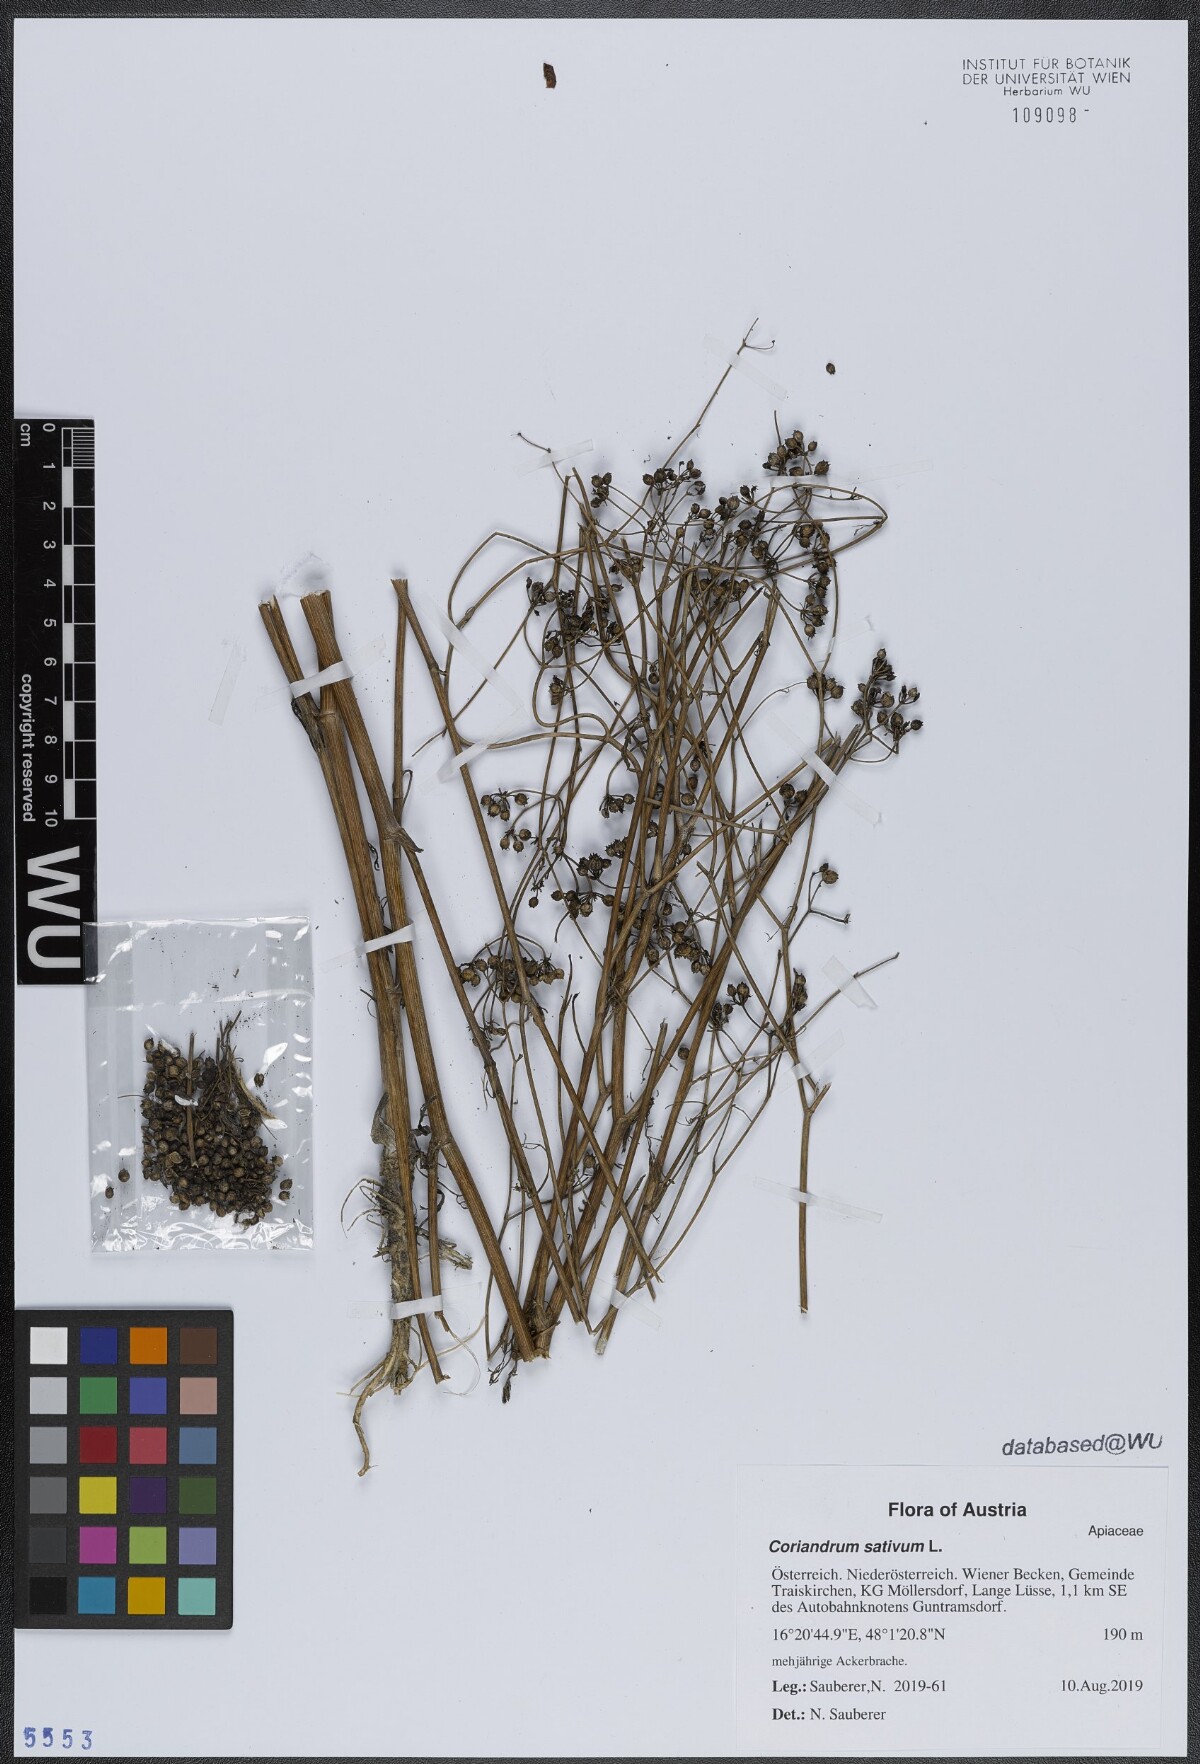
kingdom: Plantae
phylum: Tracheophyta
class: Magnoliopsida
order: Apiales
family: Apiaceae
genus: Coriandrum
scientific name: Coriandrum sativum
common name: Coriander
